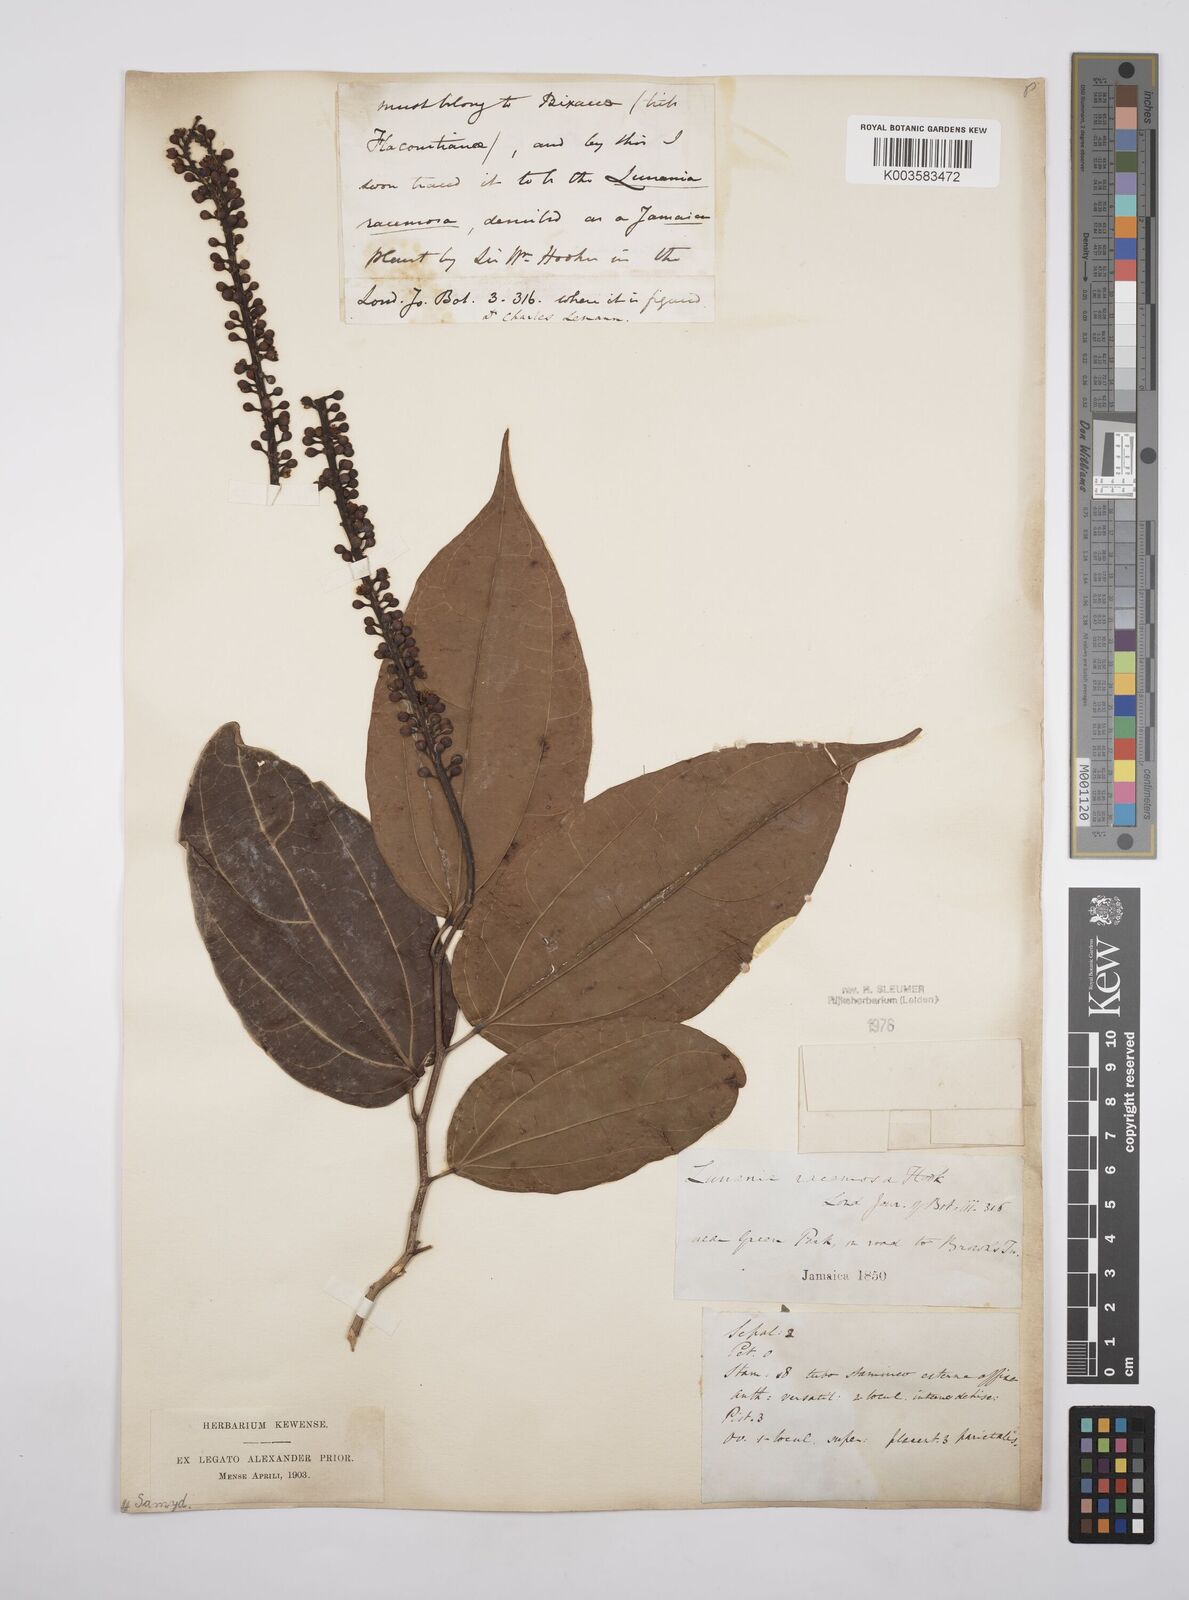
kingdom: Plantae
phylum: Tracheophyta
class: Magnoliopsida
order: Malpighiales
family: Salicaceae
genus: Lunania
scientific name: Lunania racemosa
